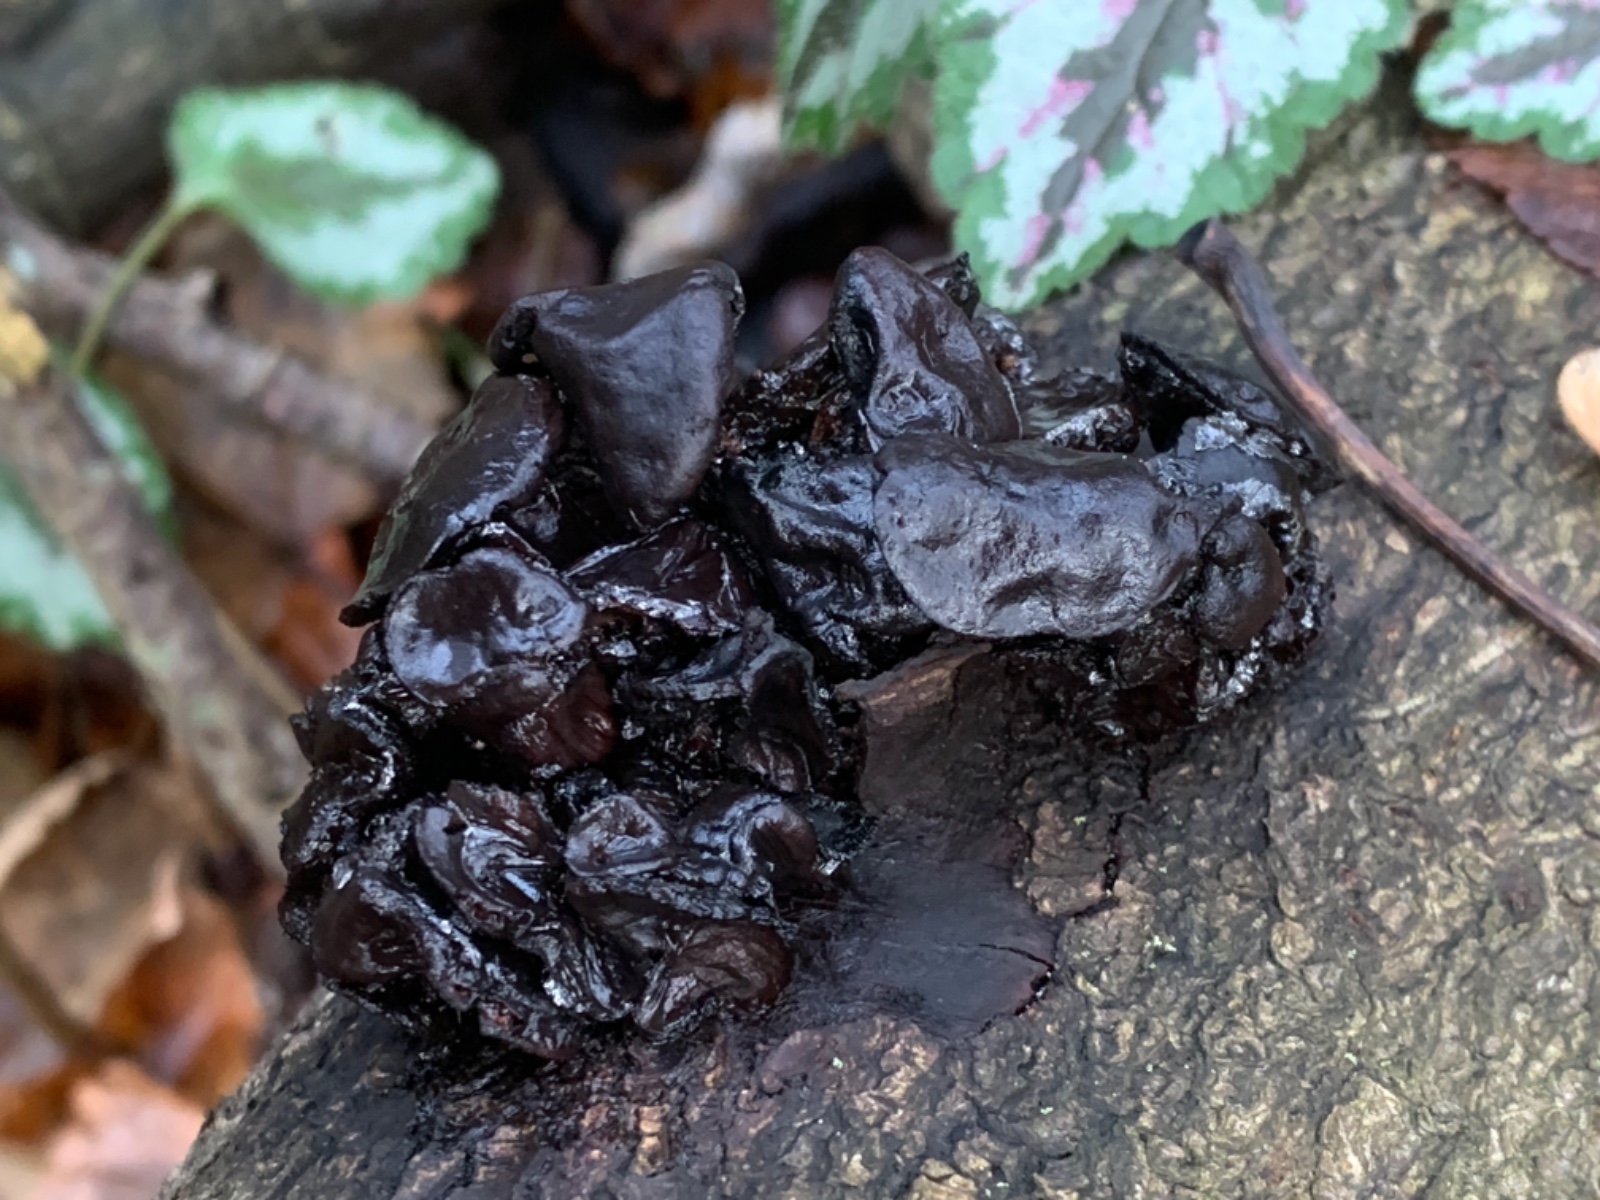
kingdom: Fungi
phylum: Basidiomycota
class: Agaricomycetes
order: Auriculariales
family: Auriculariaceae
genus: Exidia
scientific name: Exidia nigricans
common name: almindelig bævretop
